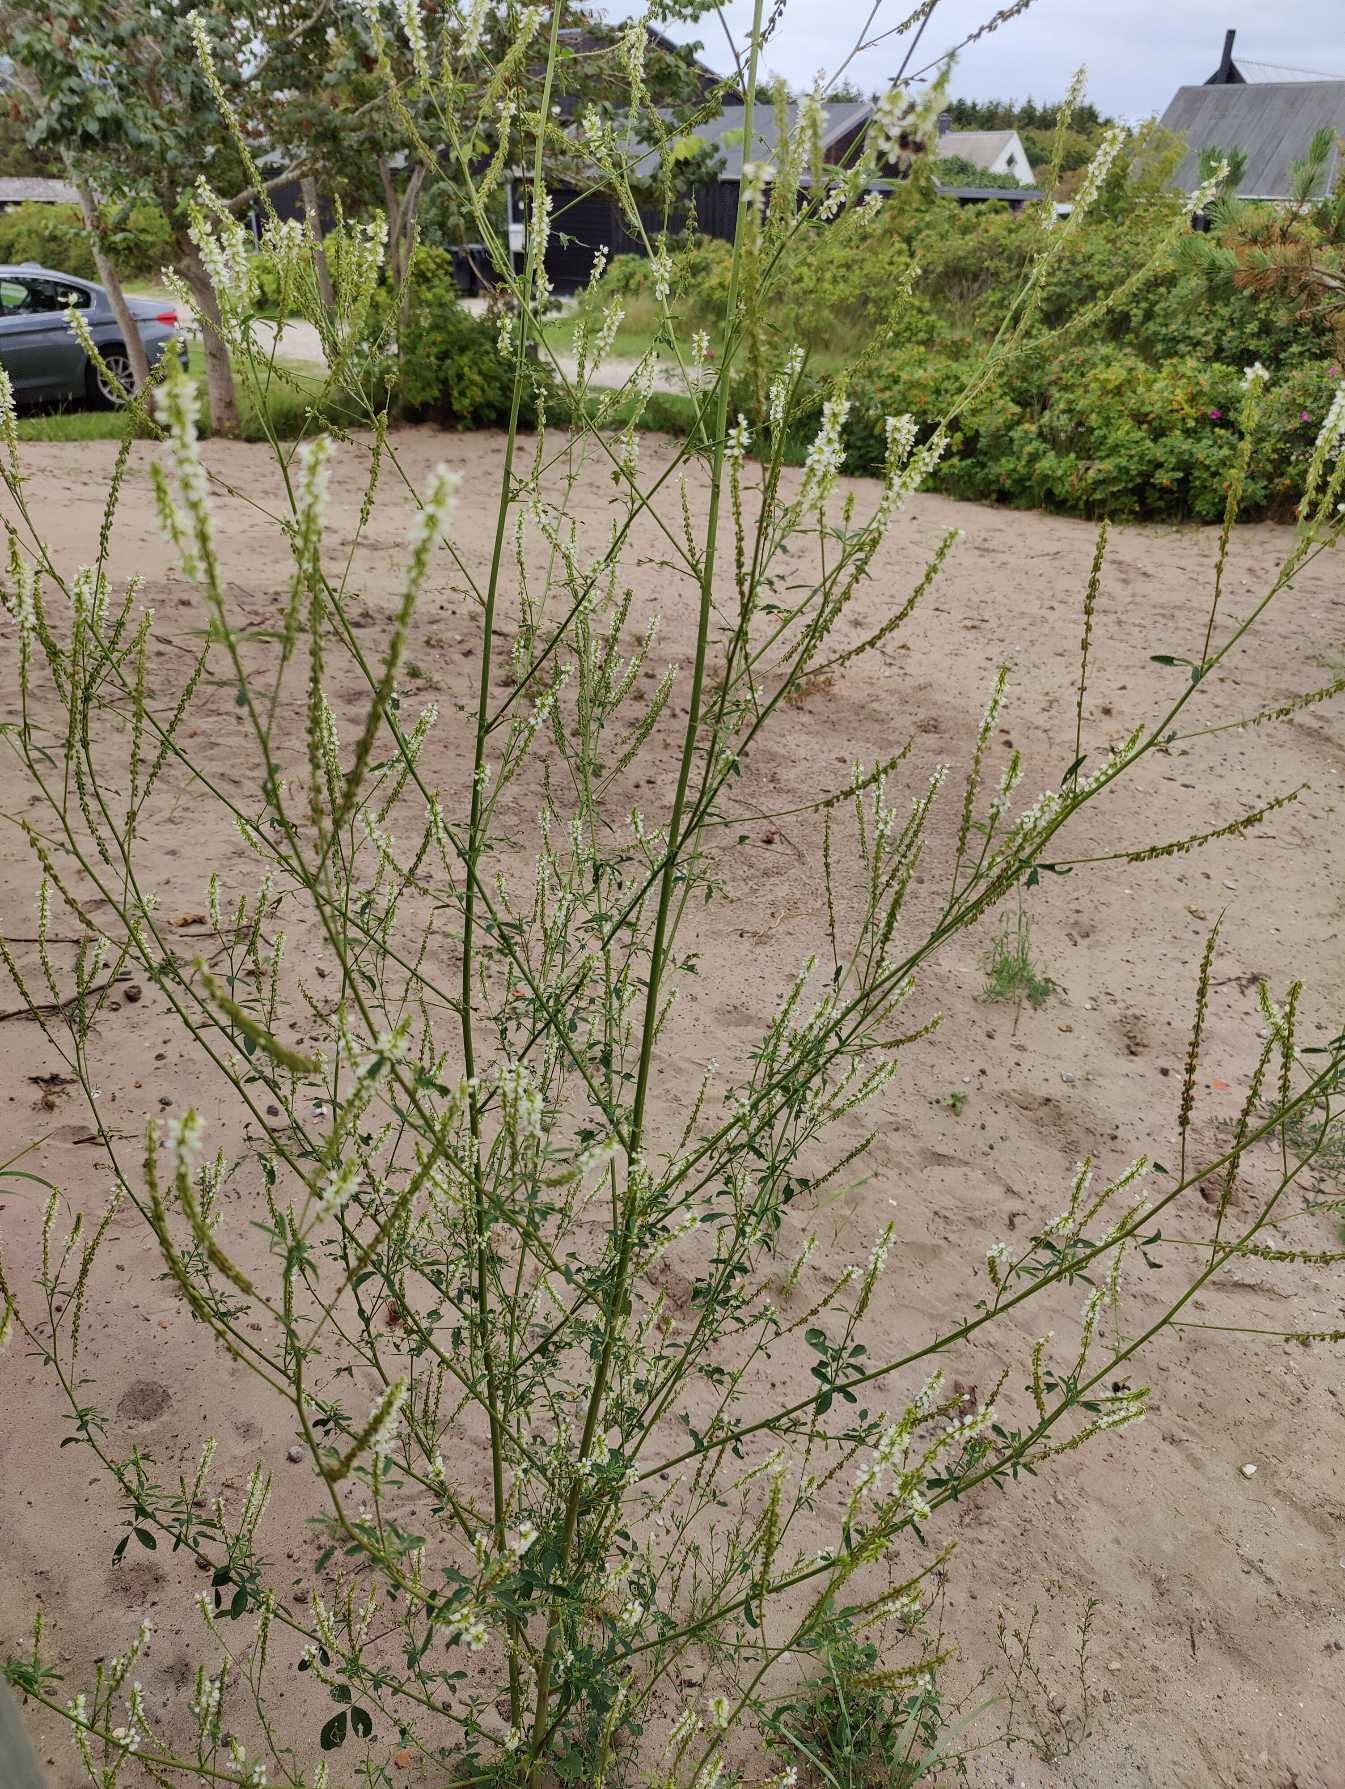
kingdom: Plantae
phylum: Tracheophyta
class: Magnoliopsida
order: Fabales
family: Fabaceae
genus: Melilotus
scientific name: Melilotus albus
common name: Hvid stenkløver
